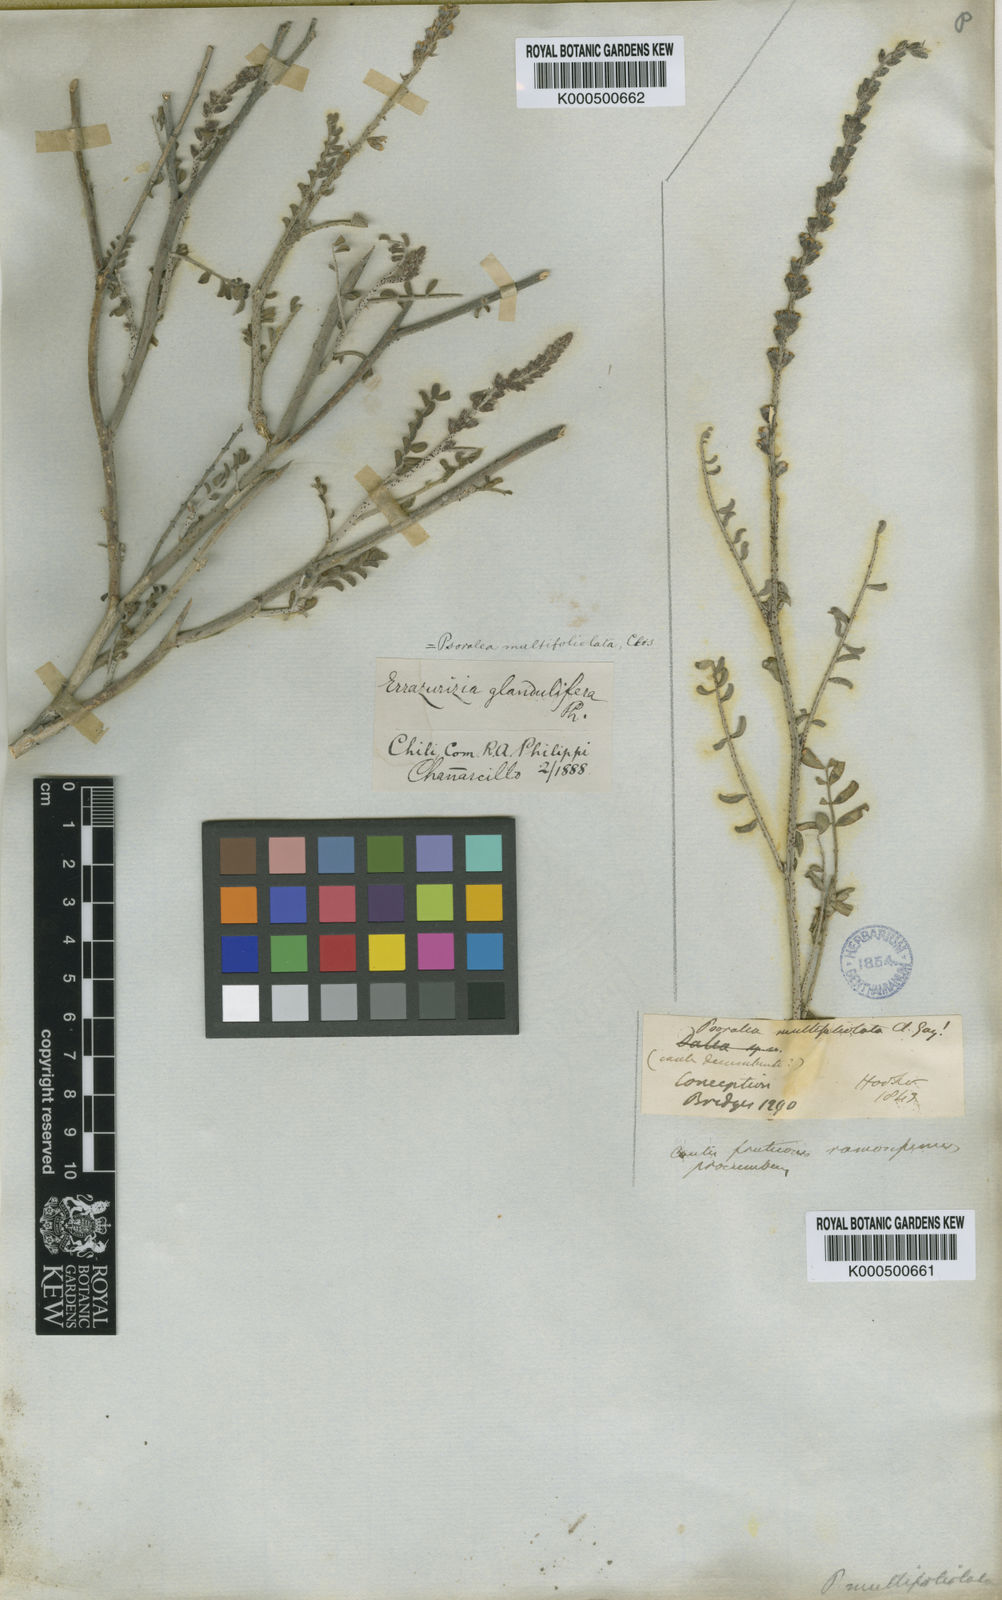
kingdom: Plantae
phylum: Tracheophyta
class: Magnoliopsida
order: Fabales
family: Fabaceae
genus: Errazurizia
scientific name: Errazurizia multifoliolata
